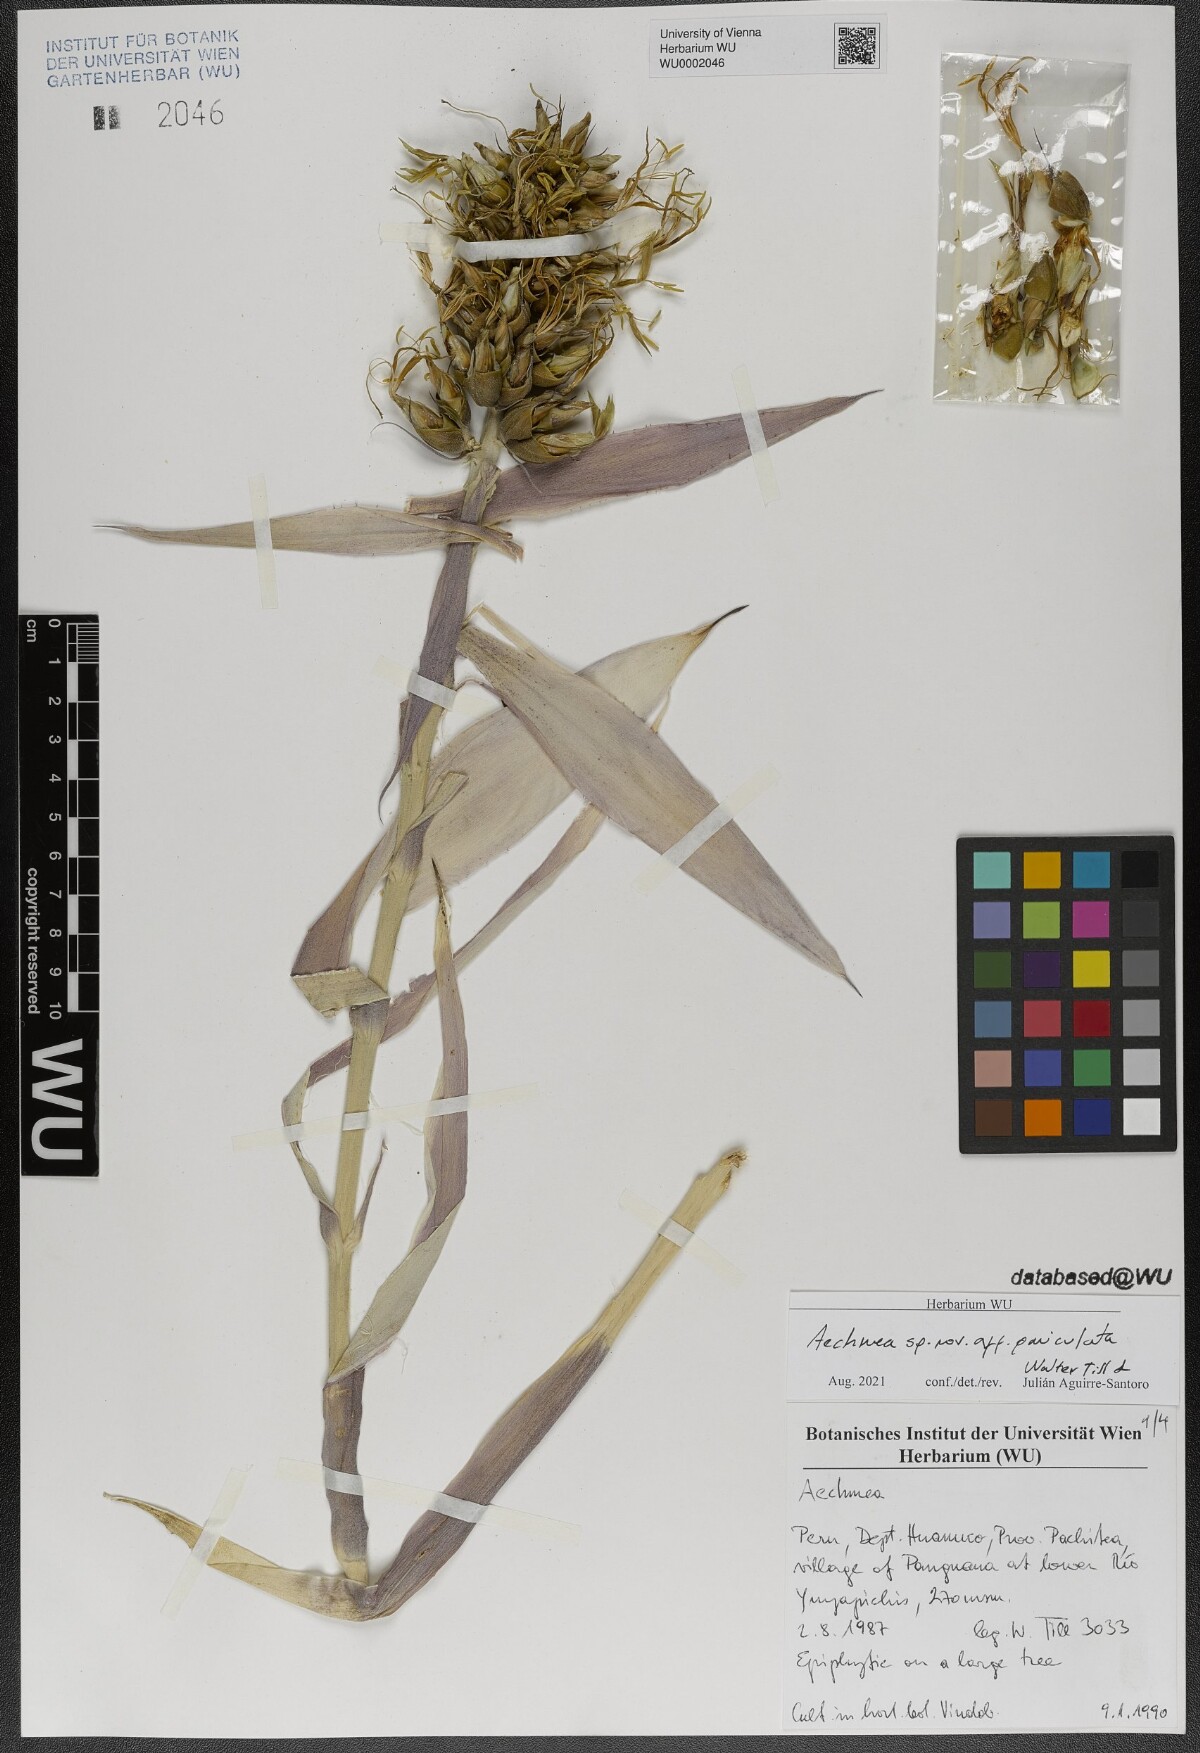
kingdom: Plantae
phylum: Tracheophyta
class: Liliopsida
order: Poales
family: Bromeliaceae
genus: Aechmea
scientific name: Aechmea
